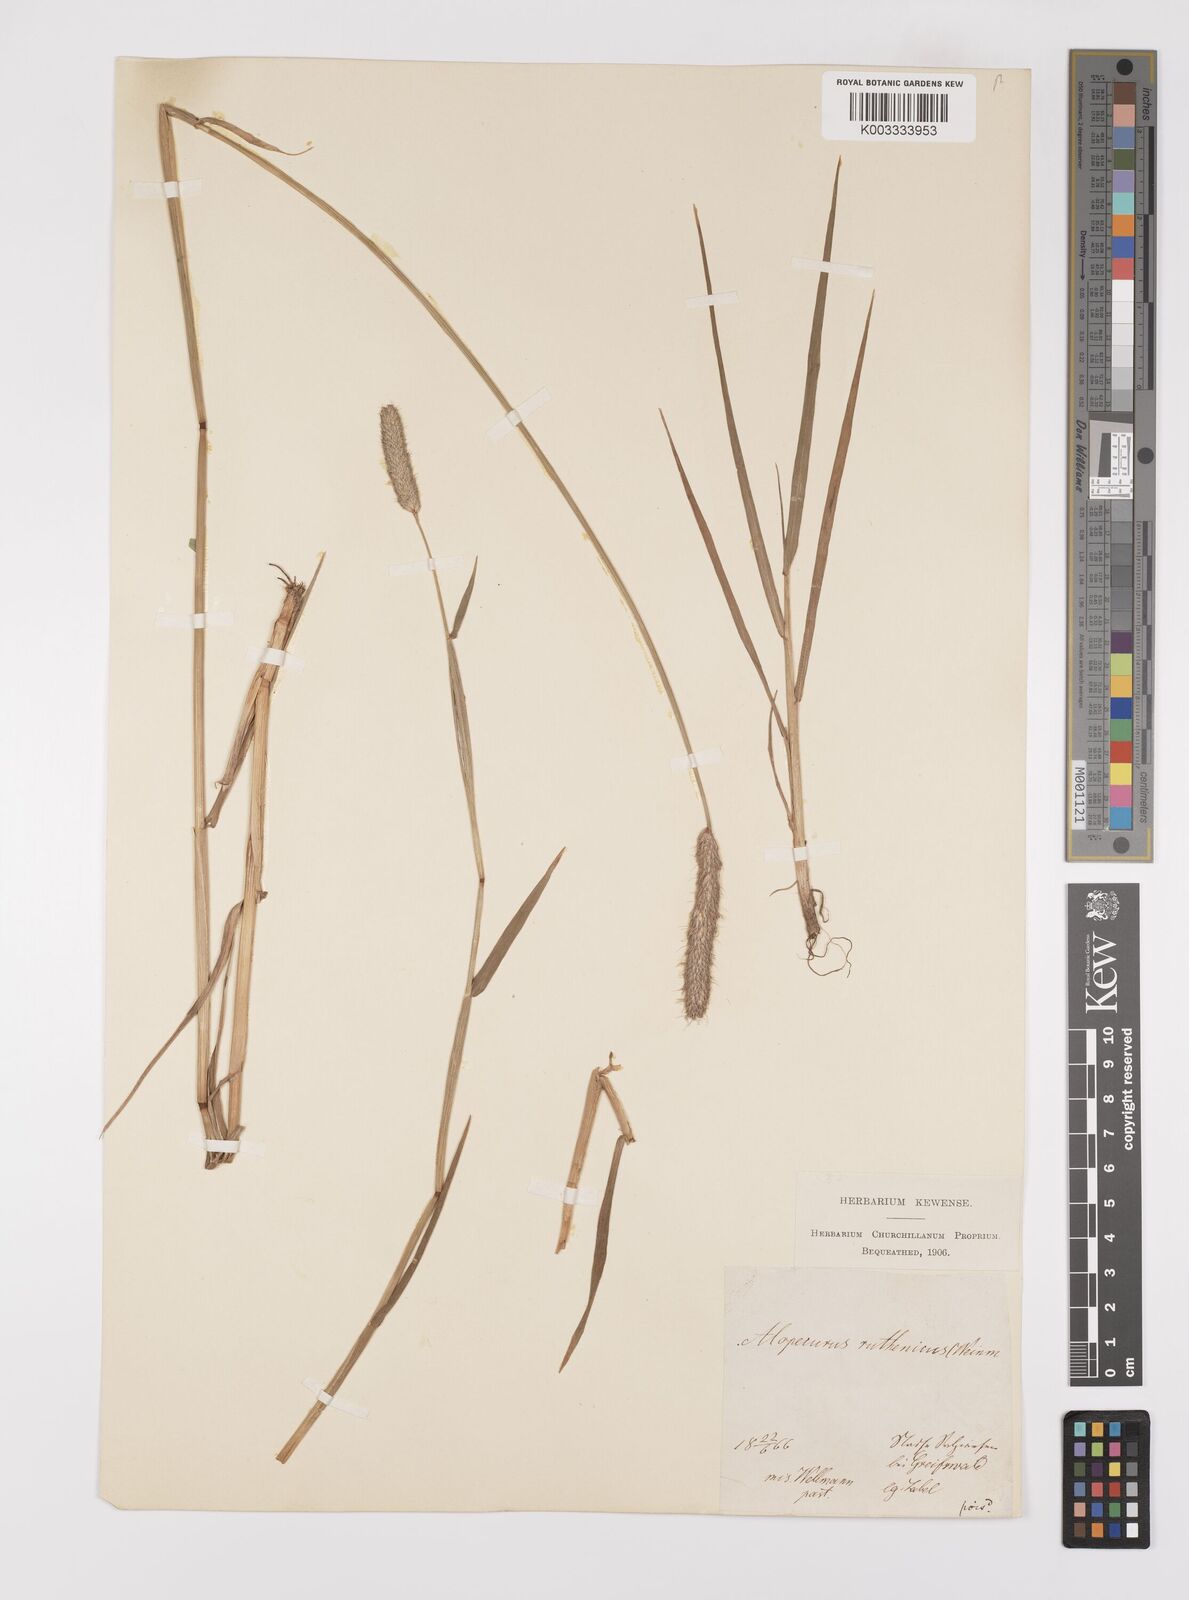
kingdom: Plantae
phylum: Tracheophyta
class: Liliopsida
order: Poales
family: Poaceae
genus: Alopecurus
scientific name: Alopecurus arundinaceus
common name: Creeping meadow foxtail
